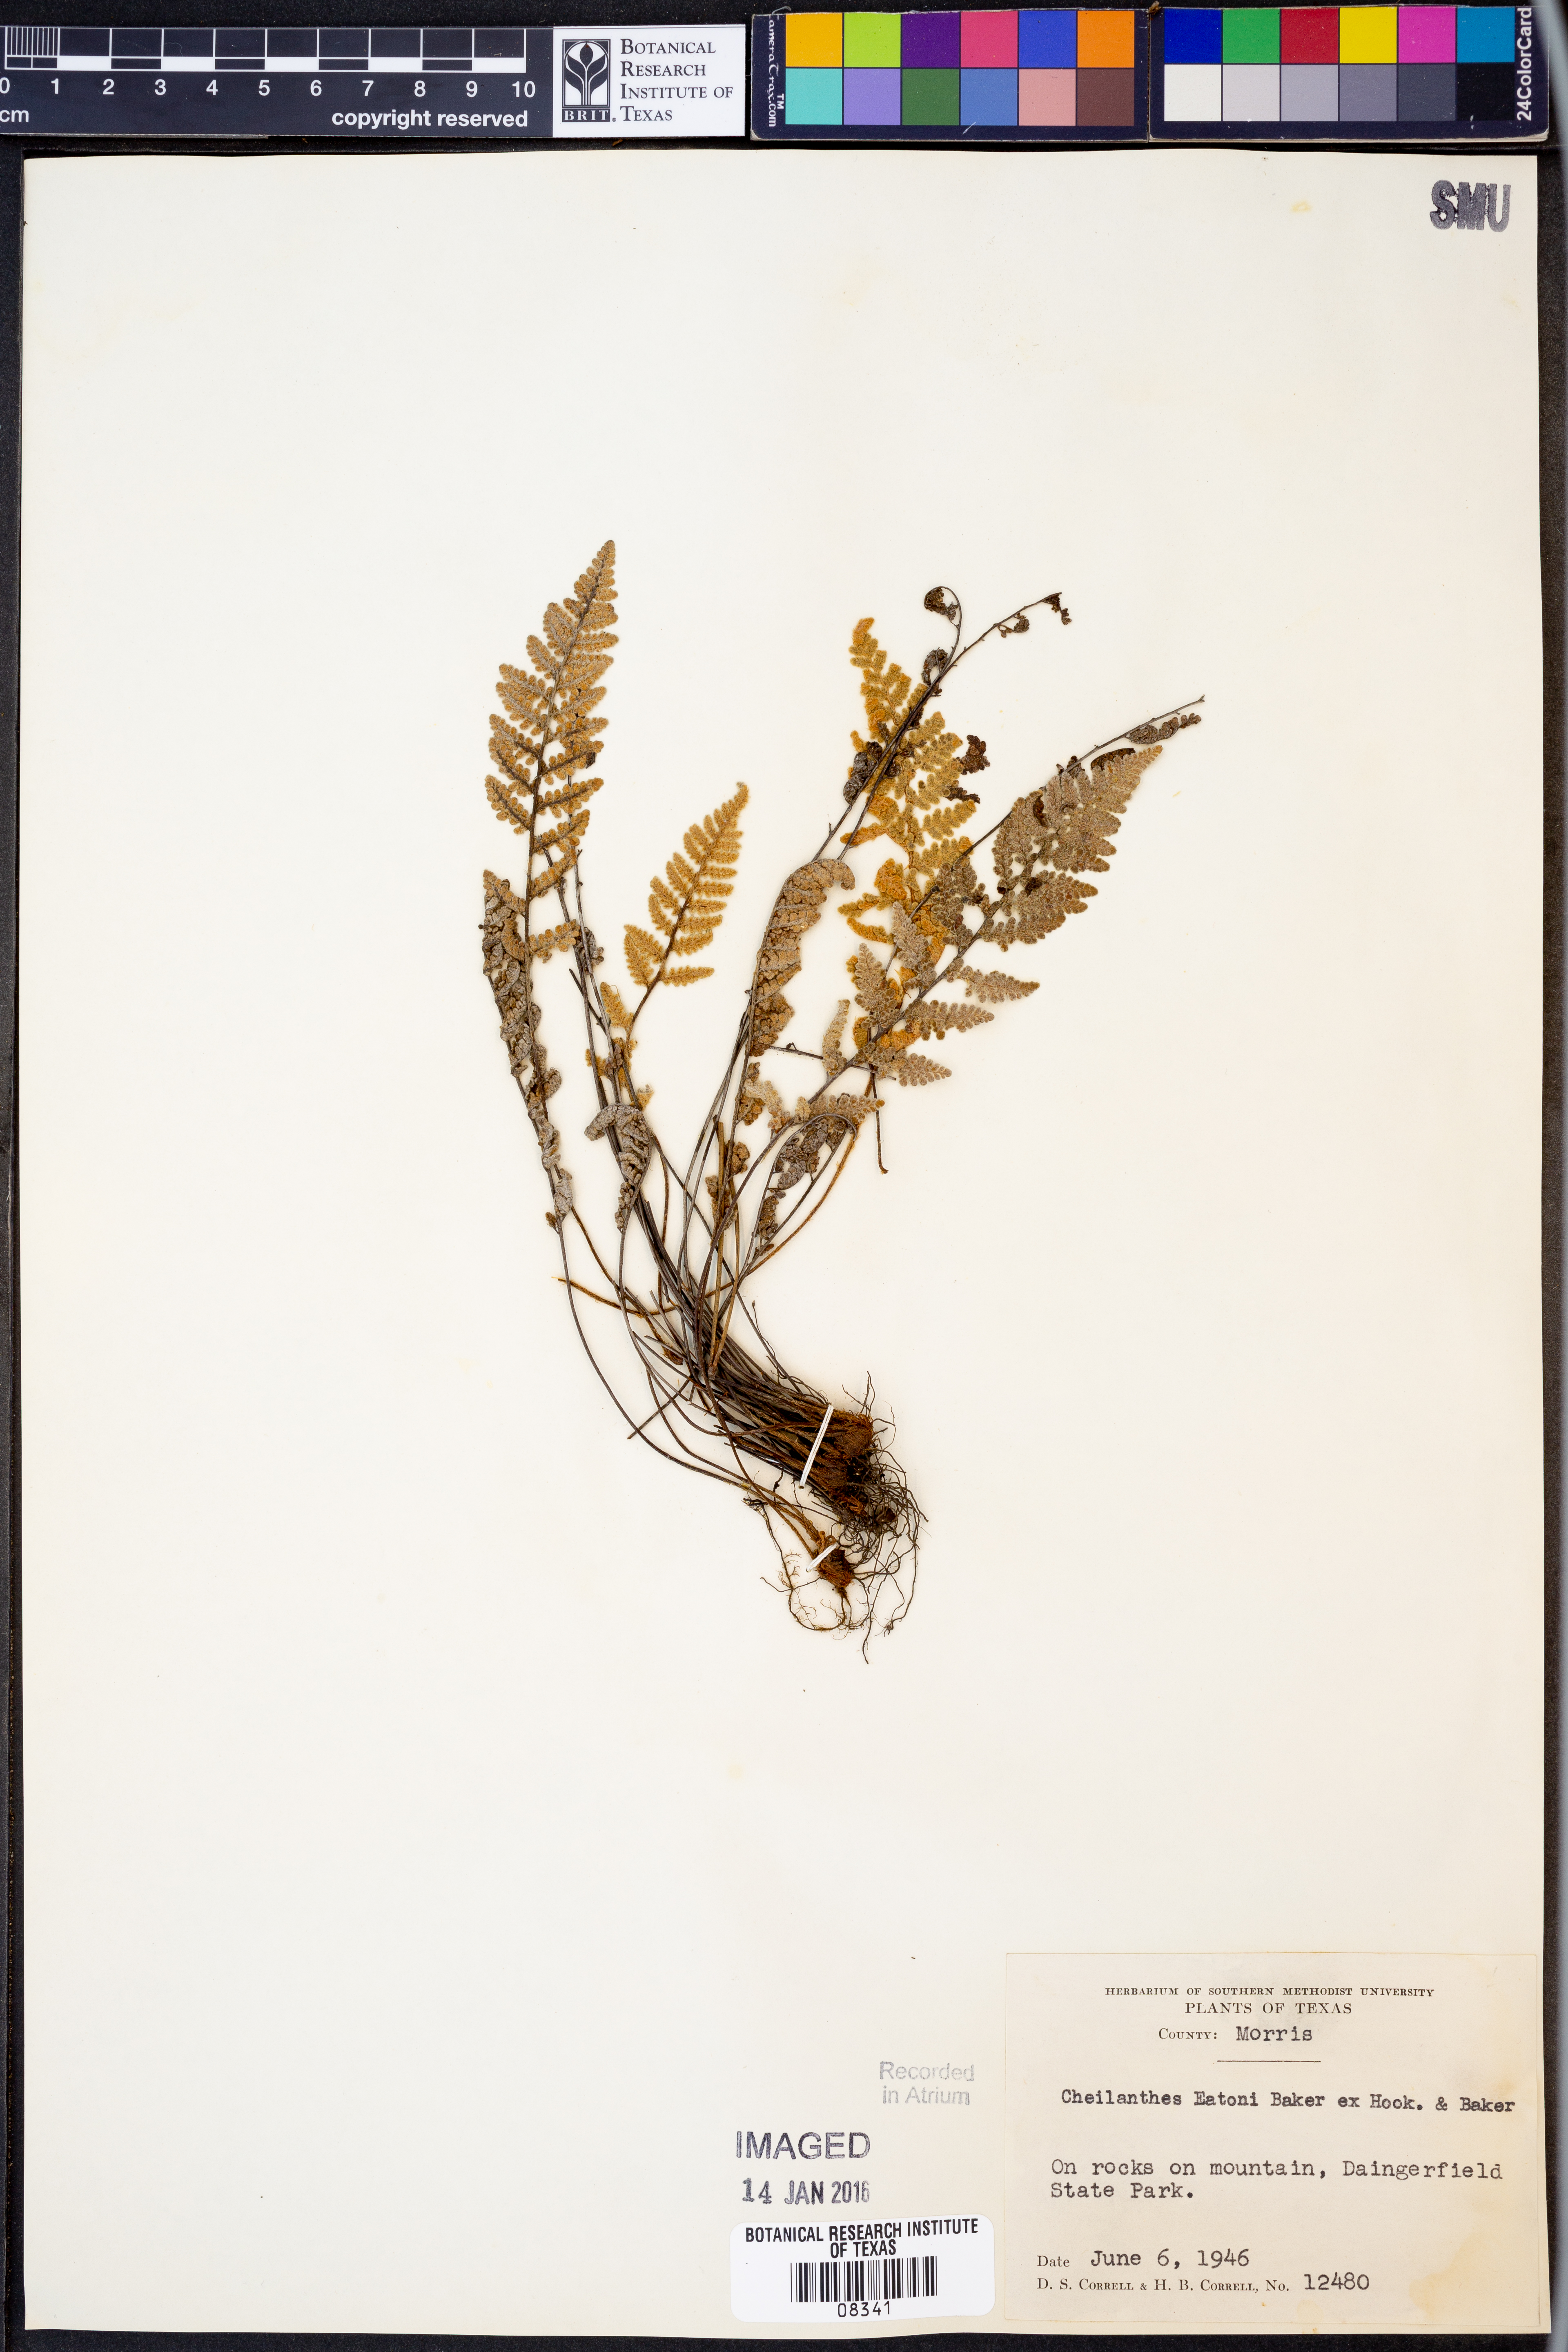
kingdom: Plantae
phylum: Tracheophyta
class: Polypodiopsida
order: Polypodiales
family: Pteridaceae
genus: Myriopteris
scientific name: Myriopteris rufa
